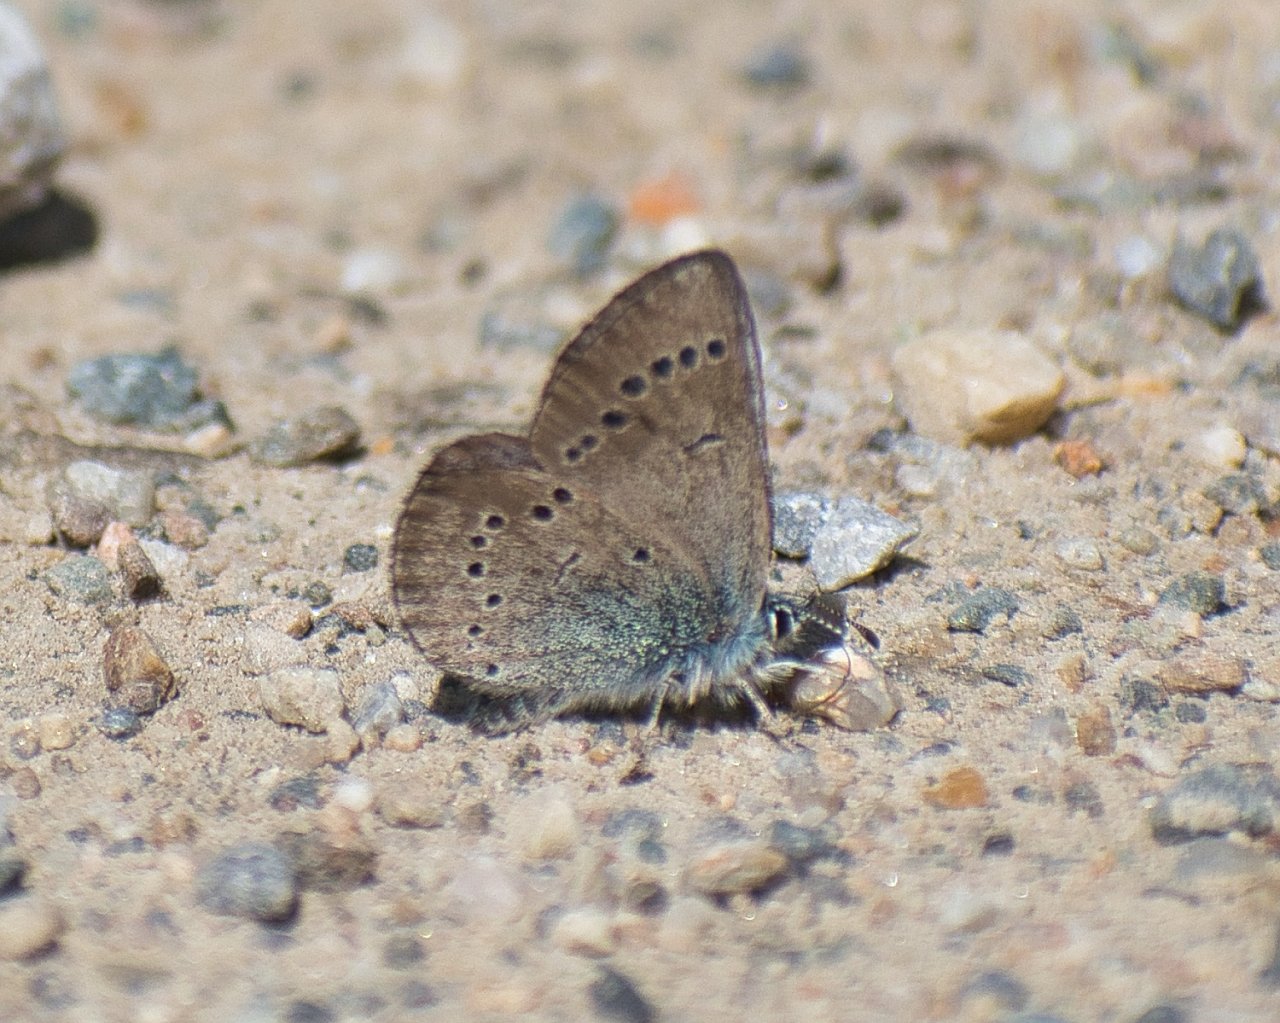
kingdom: Animalia
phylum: Arthropoda
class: Insecta
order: Lepidoptera
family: Lycaenidae
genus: Glaucopsyche
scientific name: Glaucopsyche lygdamus
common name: Silvery Blue
